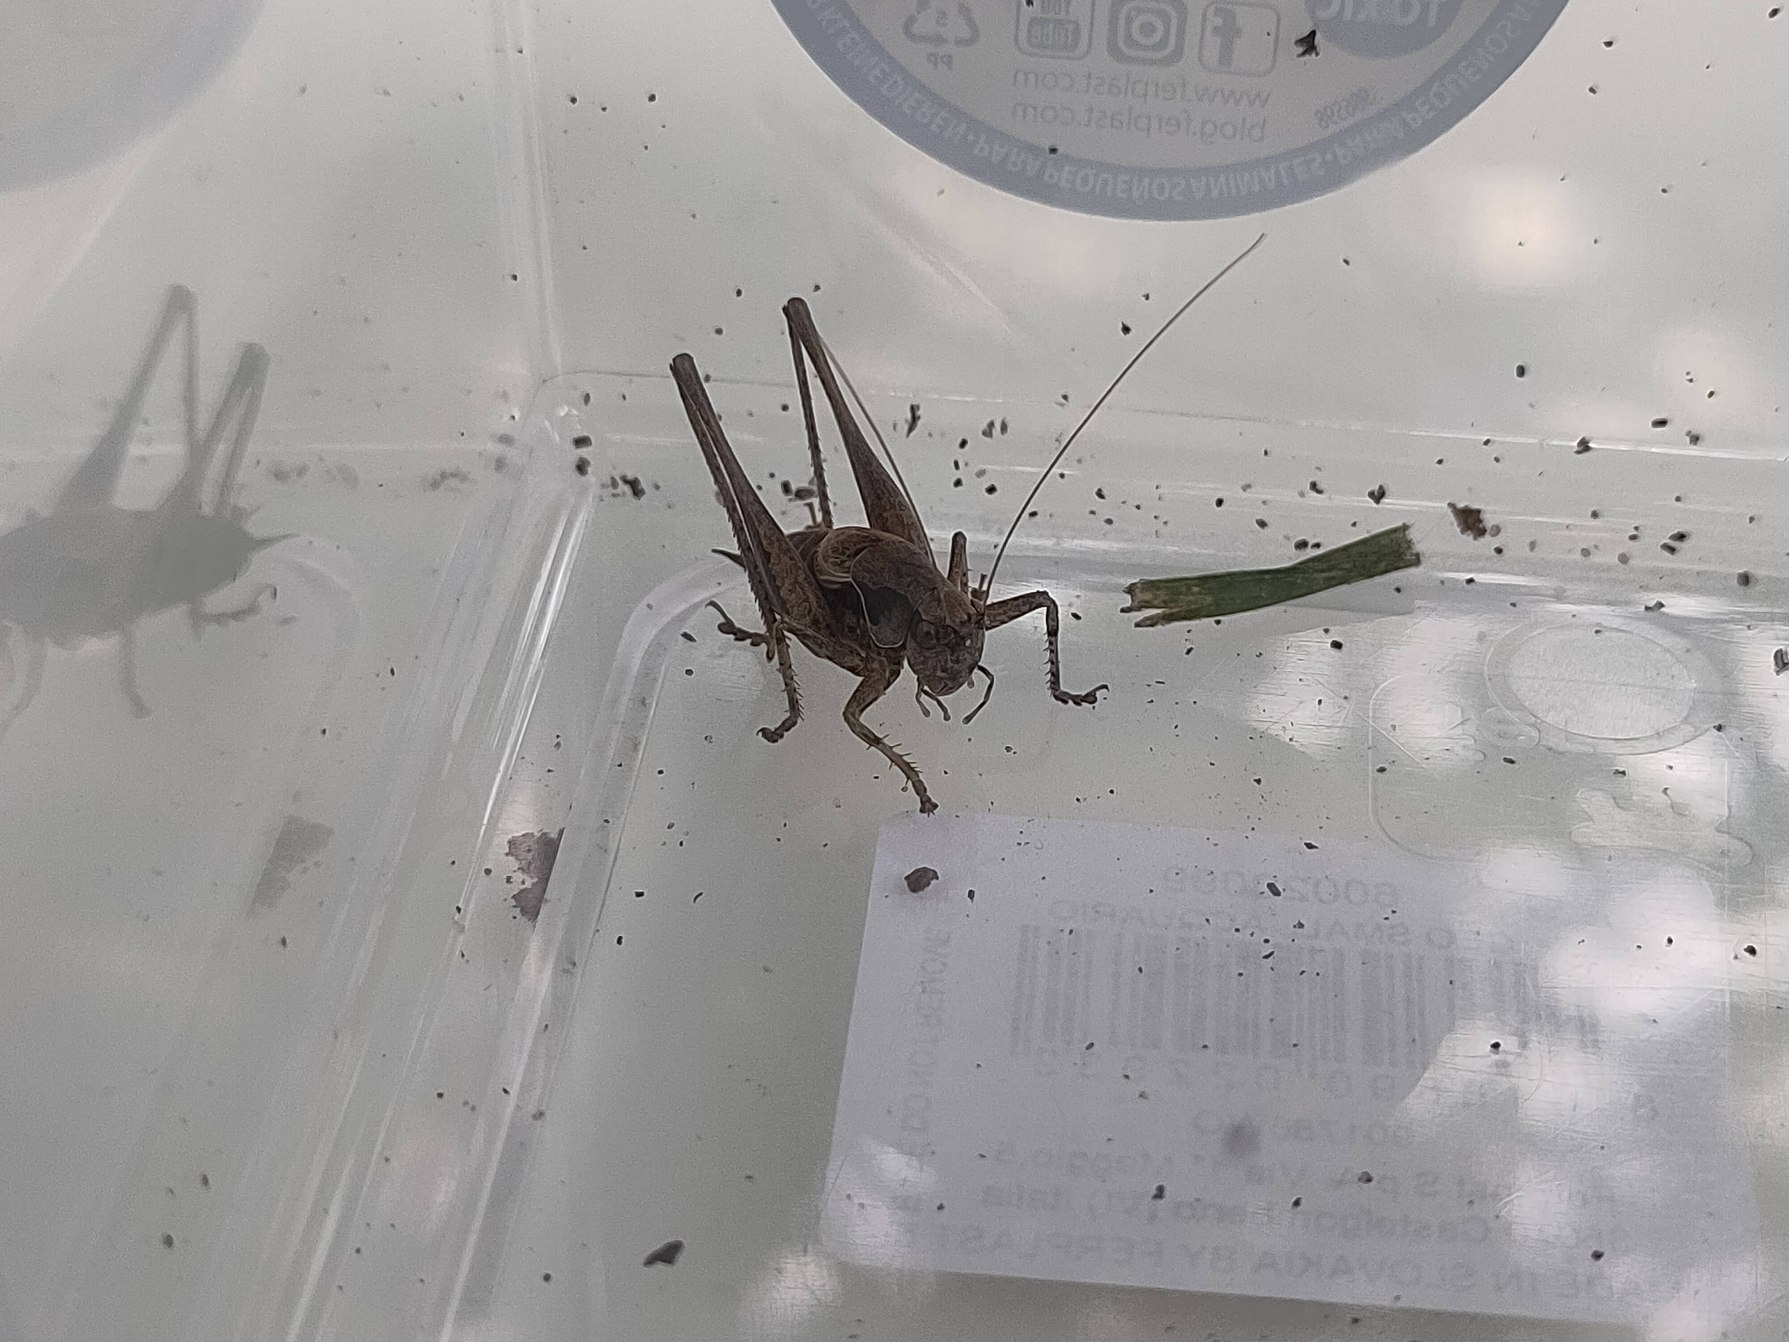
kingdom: Animalia
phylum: Arthropoda
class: Insecta
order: Orthoptera
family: Tettigoniidae
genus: Pholidoptera
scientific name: Pholidoptera griseoaptera
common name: Buskgræshoppe
